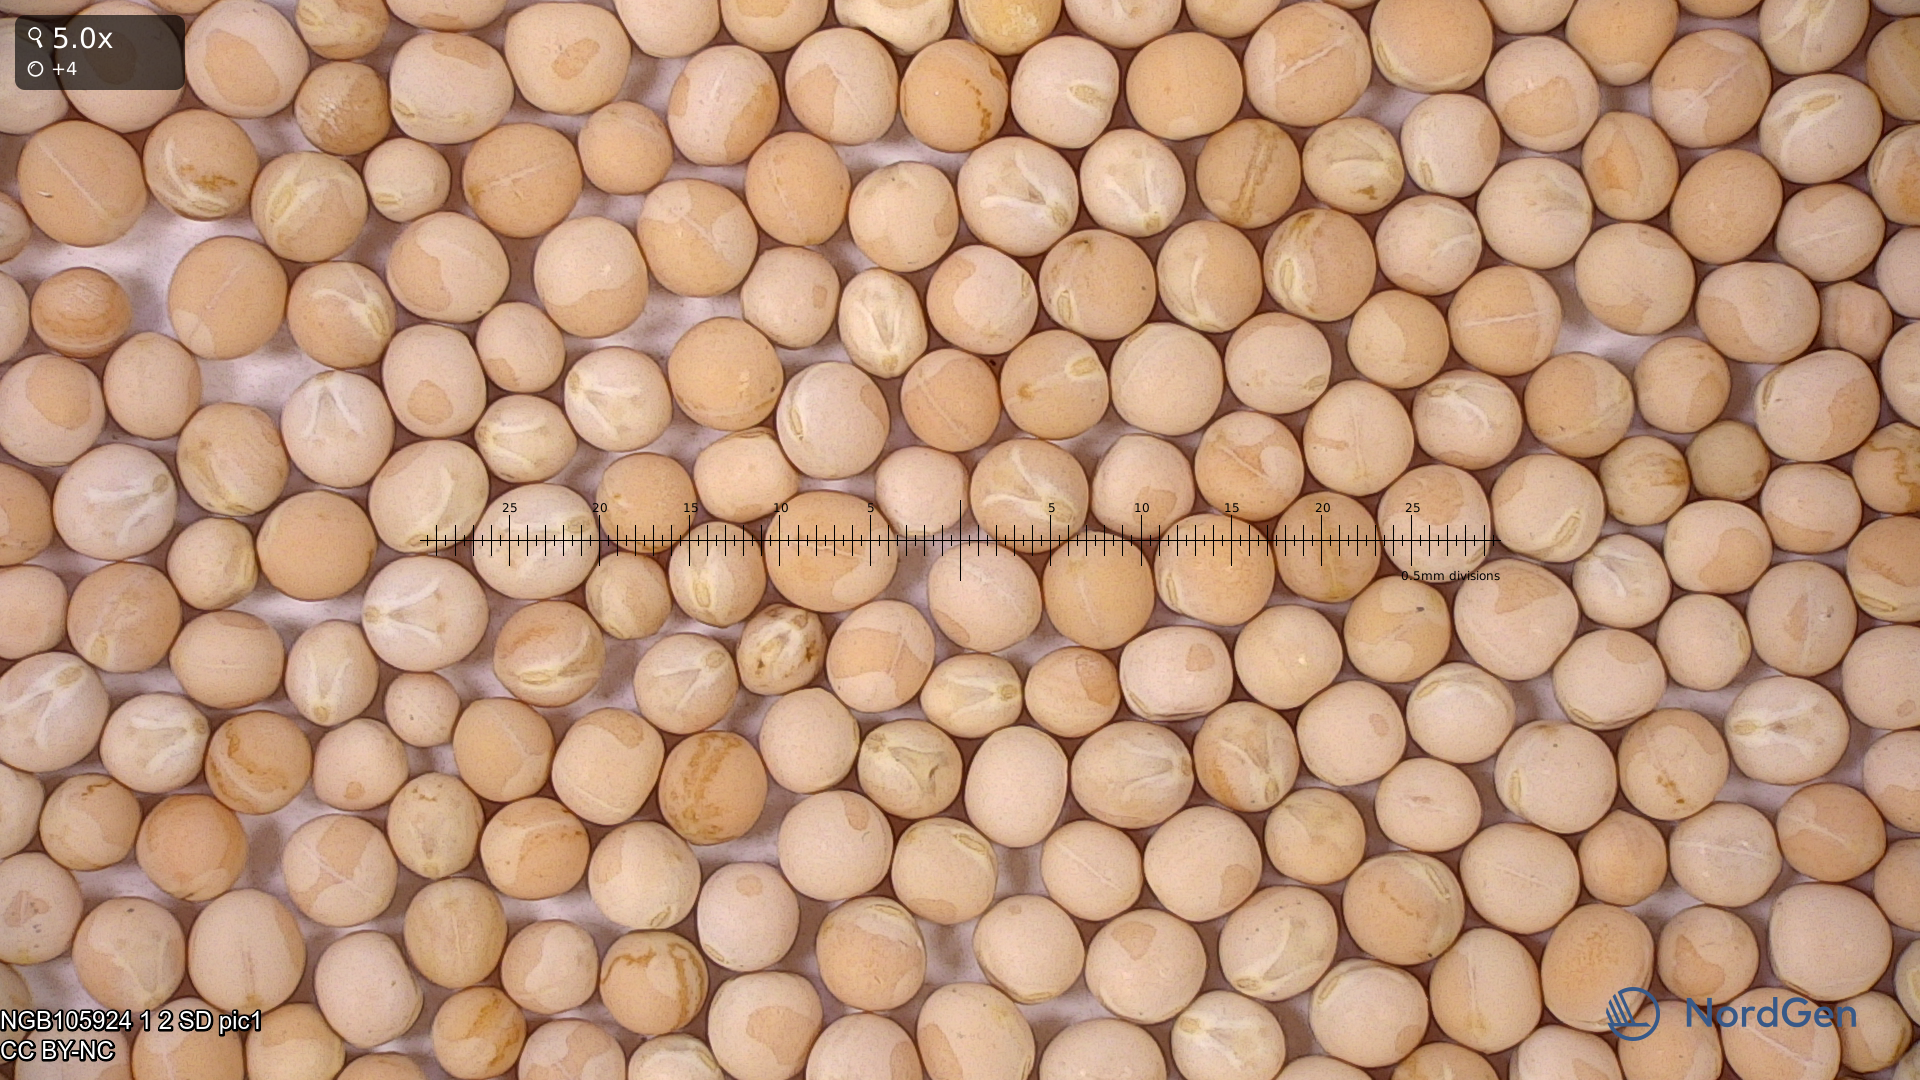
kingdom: Plantae
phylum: Tracheophyta
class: Magnoliopsida
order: Fabales
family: Fabaceae
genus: Lathyrus
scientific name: Lathyrus oleraceus
